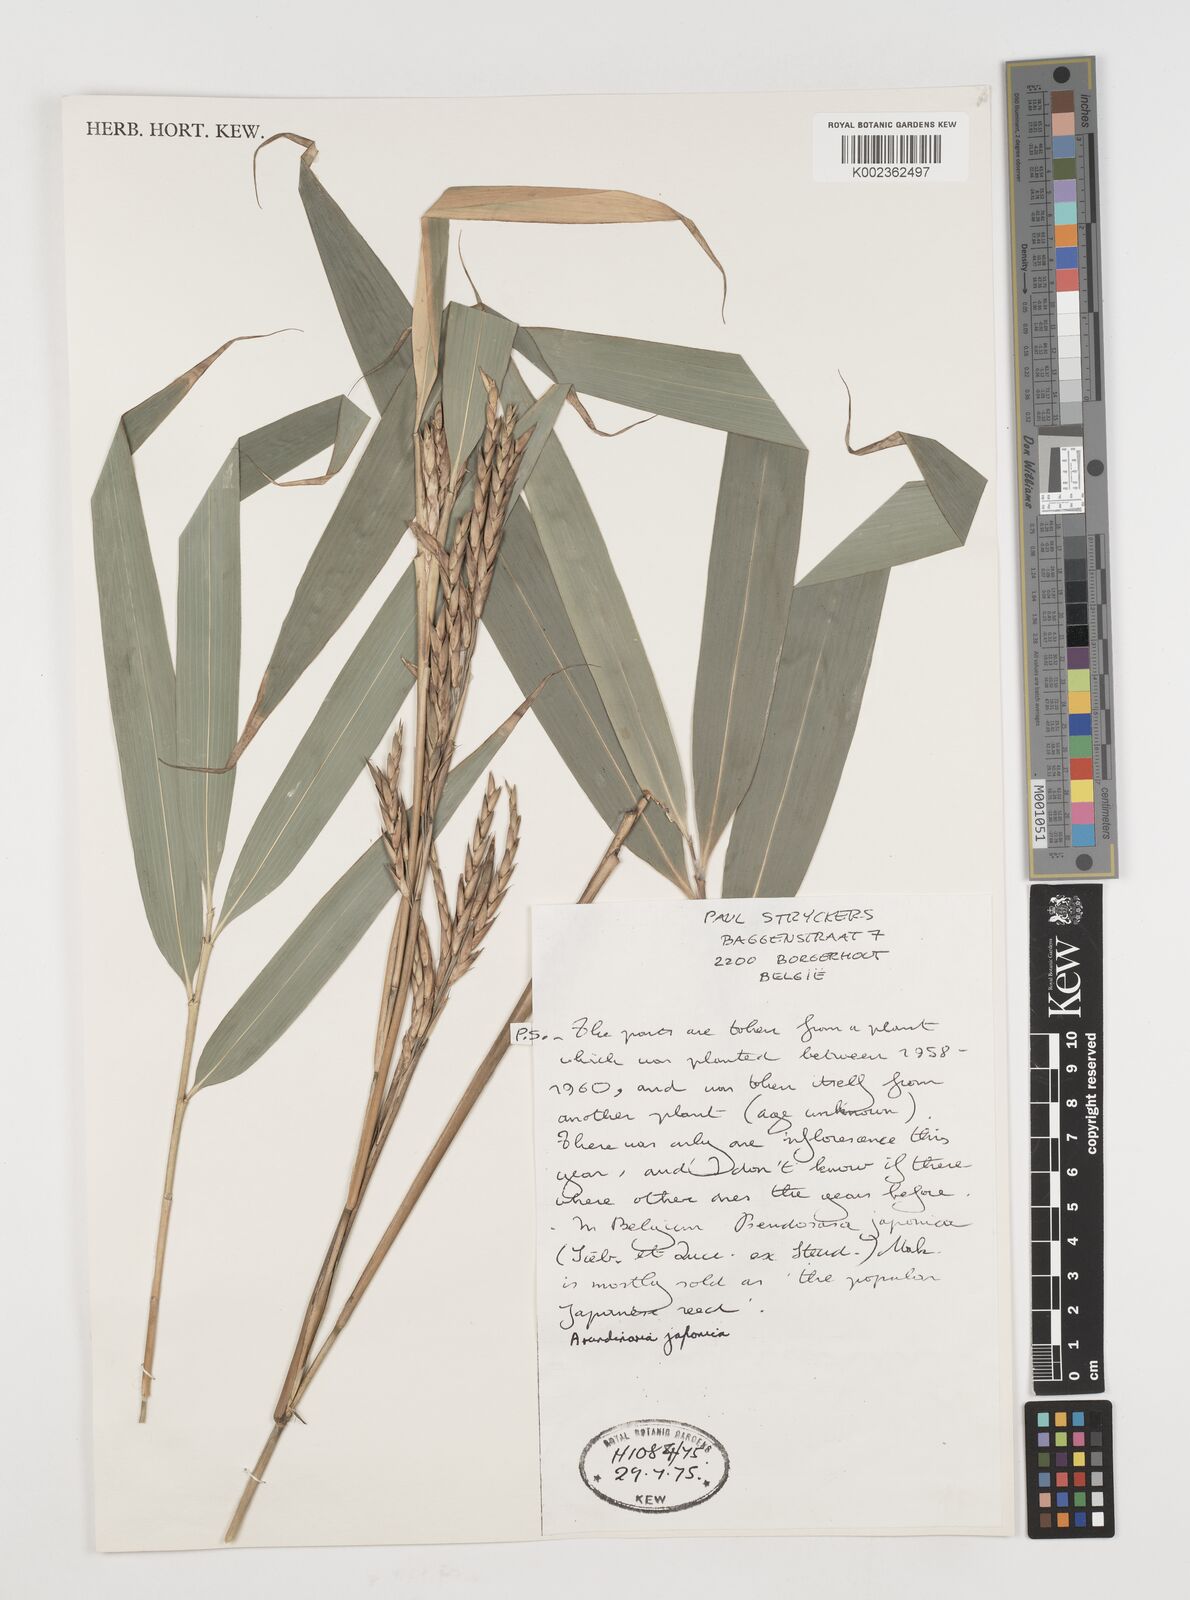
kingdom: Plantae
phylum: Tracheophyta
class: Liliopsida
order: Poales
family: Poaceae
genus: Pseudosasa
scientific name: Pseudosasa japonica
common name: Arrow bamboo
